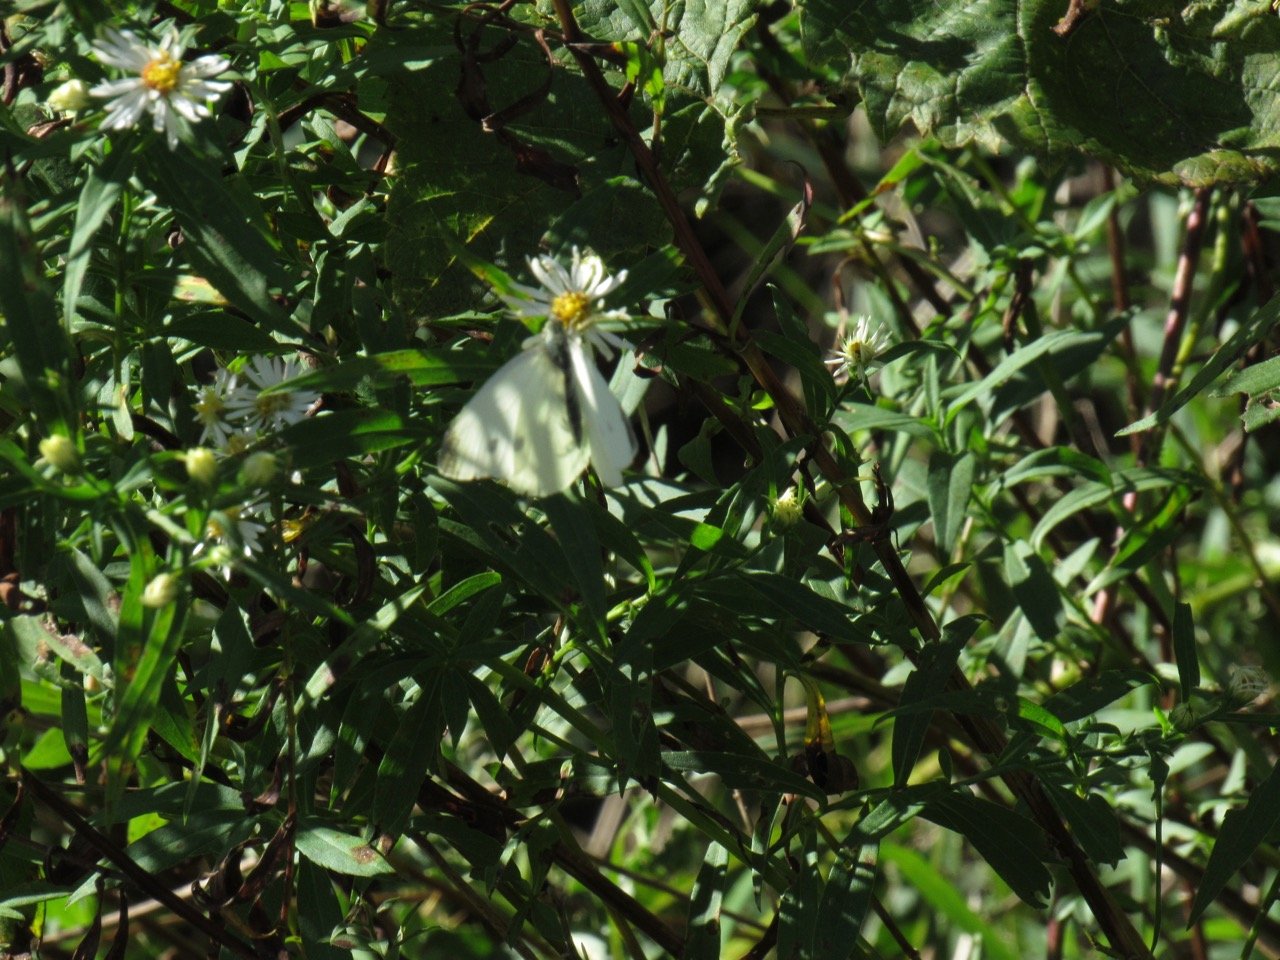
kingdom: Animalia
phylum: Arthropoda
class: Insecta
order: Lepidoptera
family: Pieridae
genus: Pieris
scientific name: Pieris rapae
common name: Cabbage White
